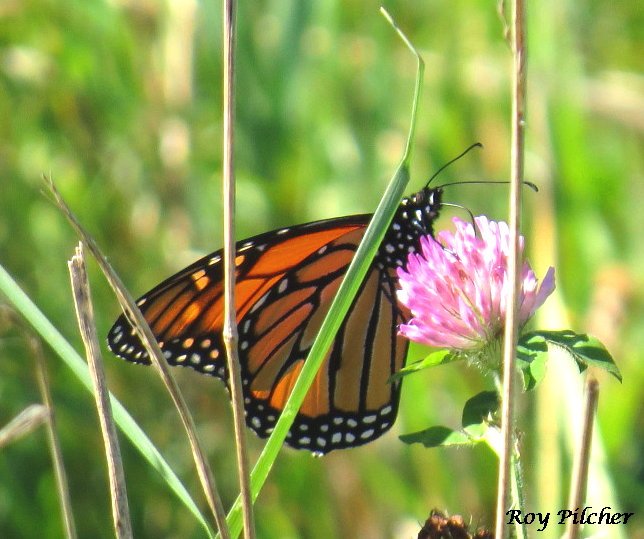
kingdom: Animalia
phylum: Arthropoda
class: Insecta
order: Lepidoptera
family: Nymphalidae
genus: Danaus
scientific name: Danaus plexippus
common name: Monarch
